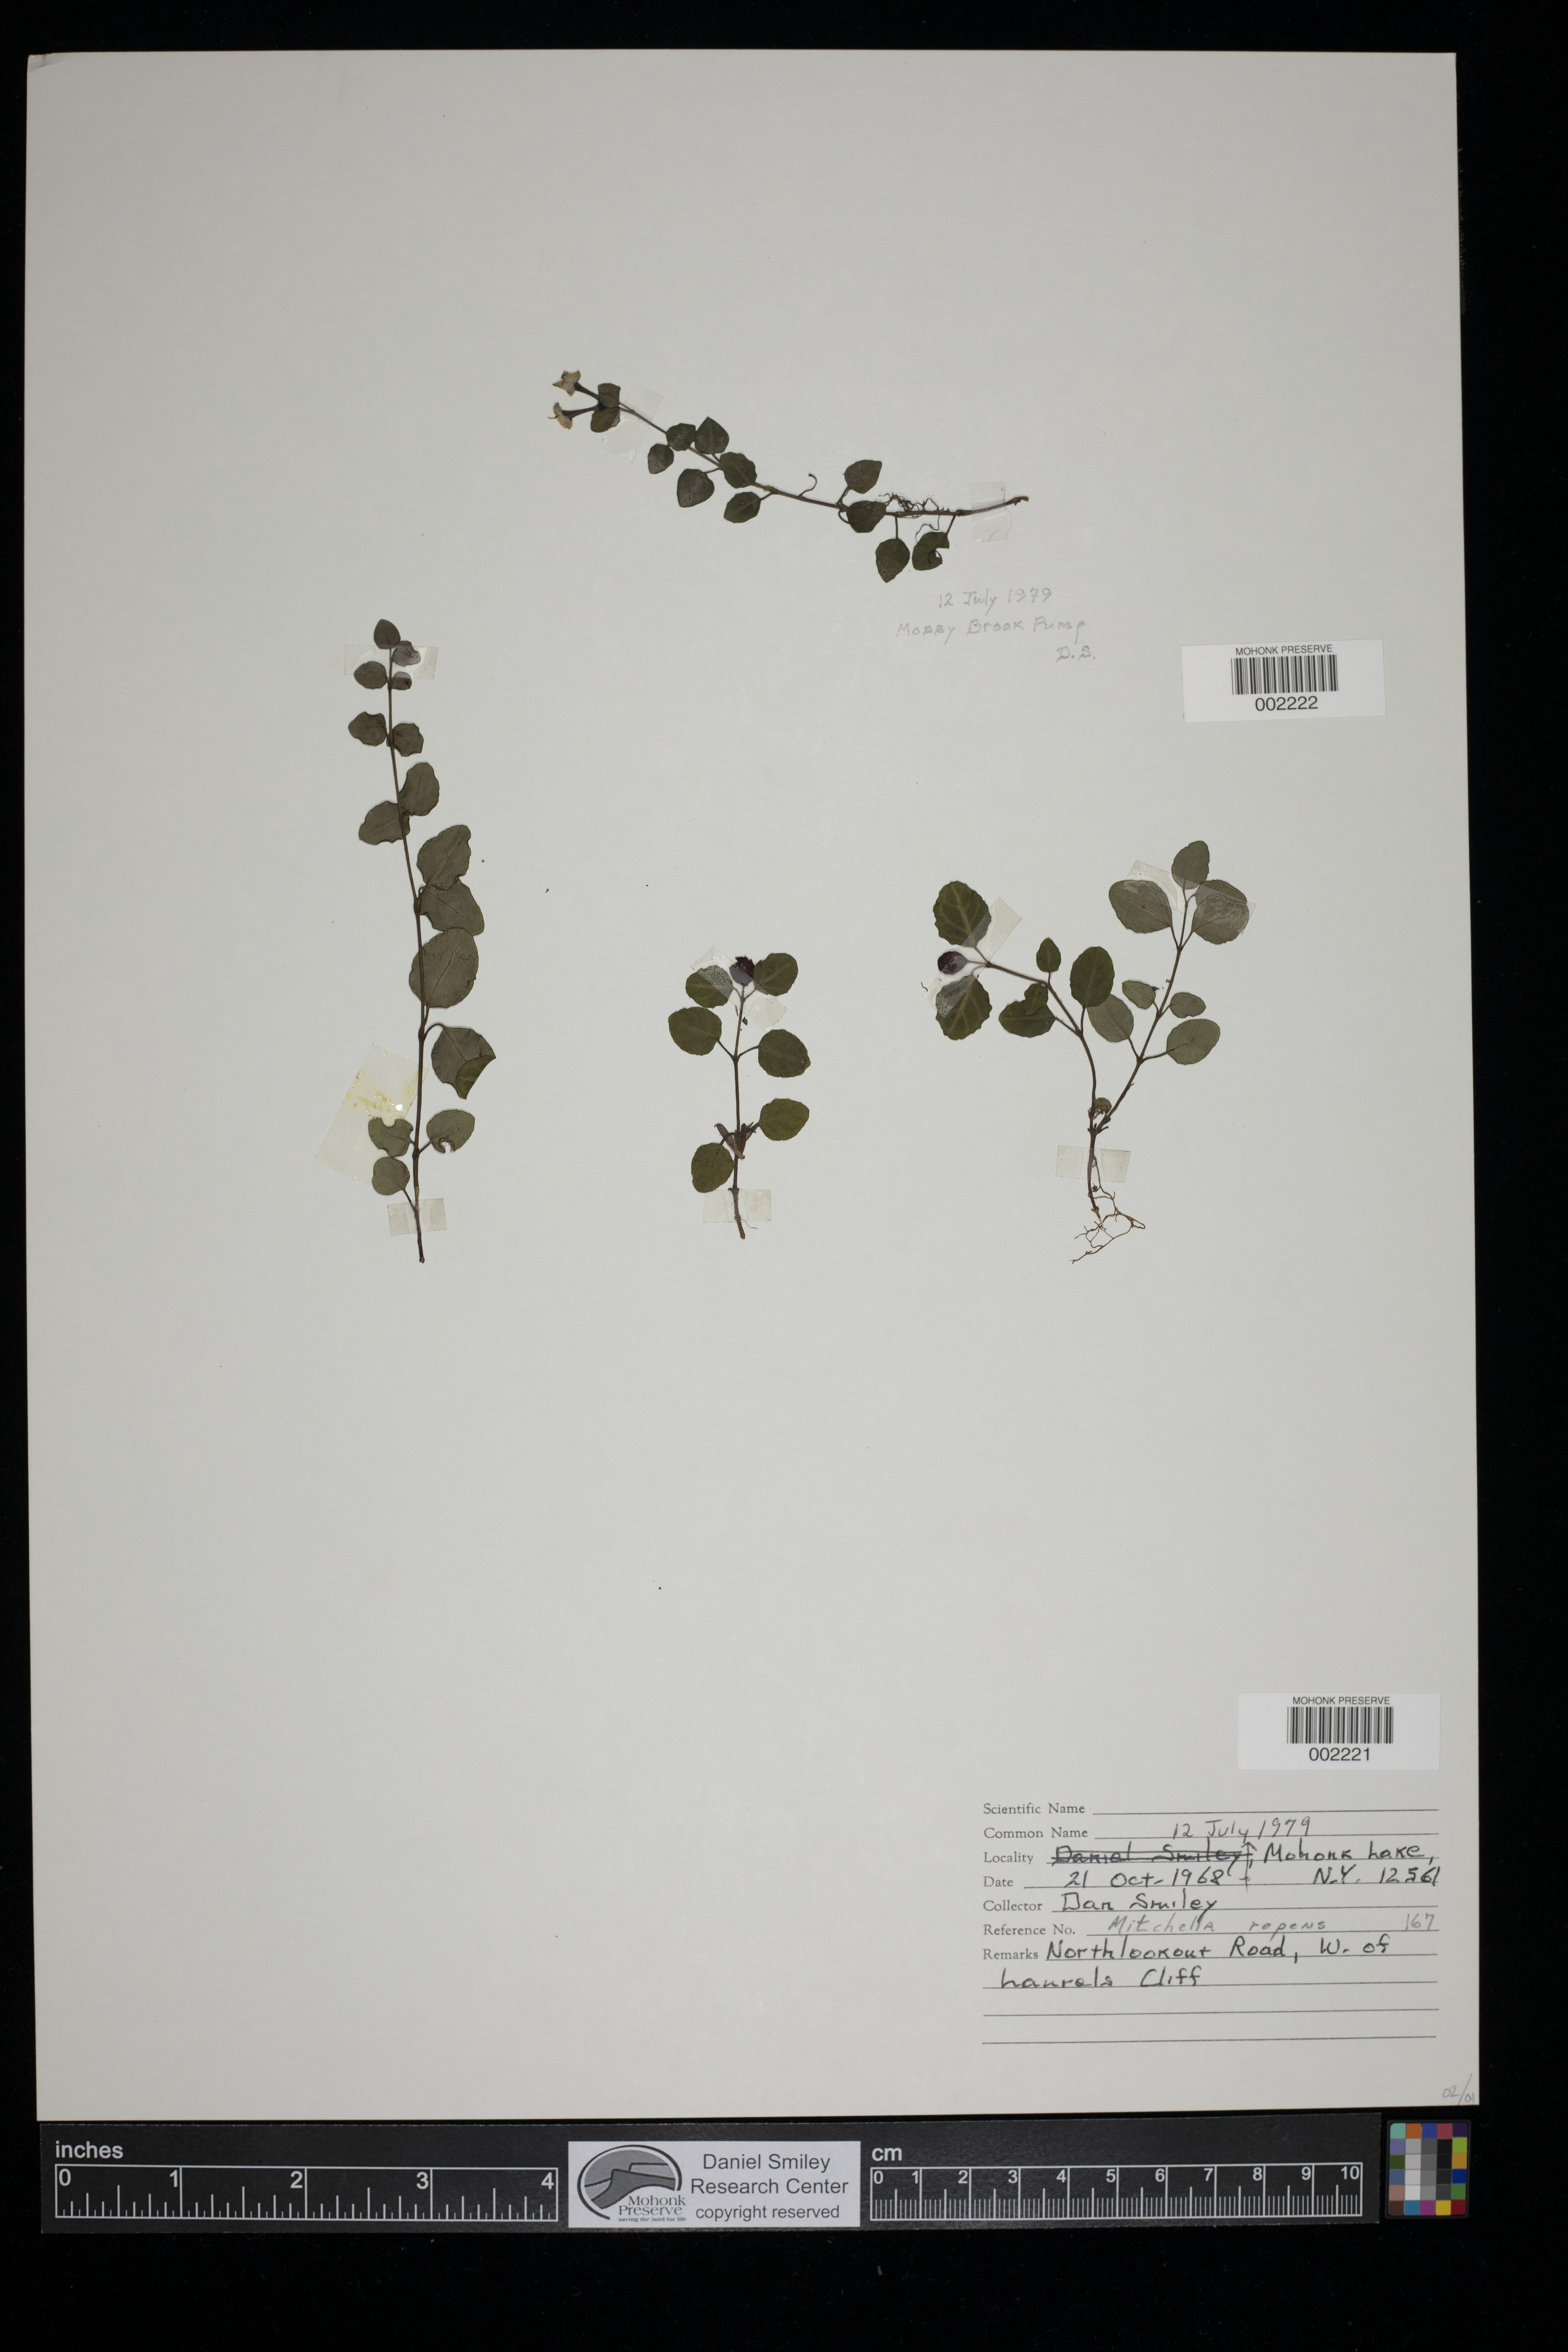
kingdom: Plantae
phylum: Tracheophyta
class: Magnoliopsida
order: Gentianales
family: Rubiaceae
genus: Mitchella
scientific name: Mitchella repens
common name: Partridge-berry
